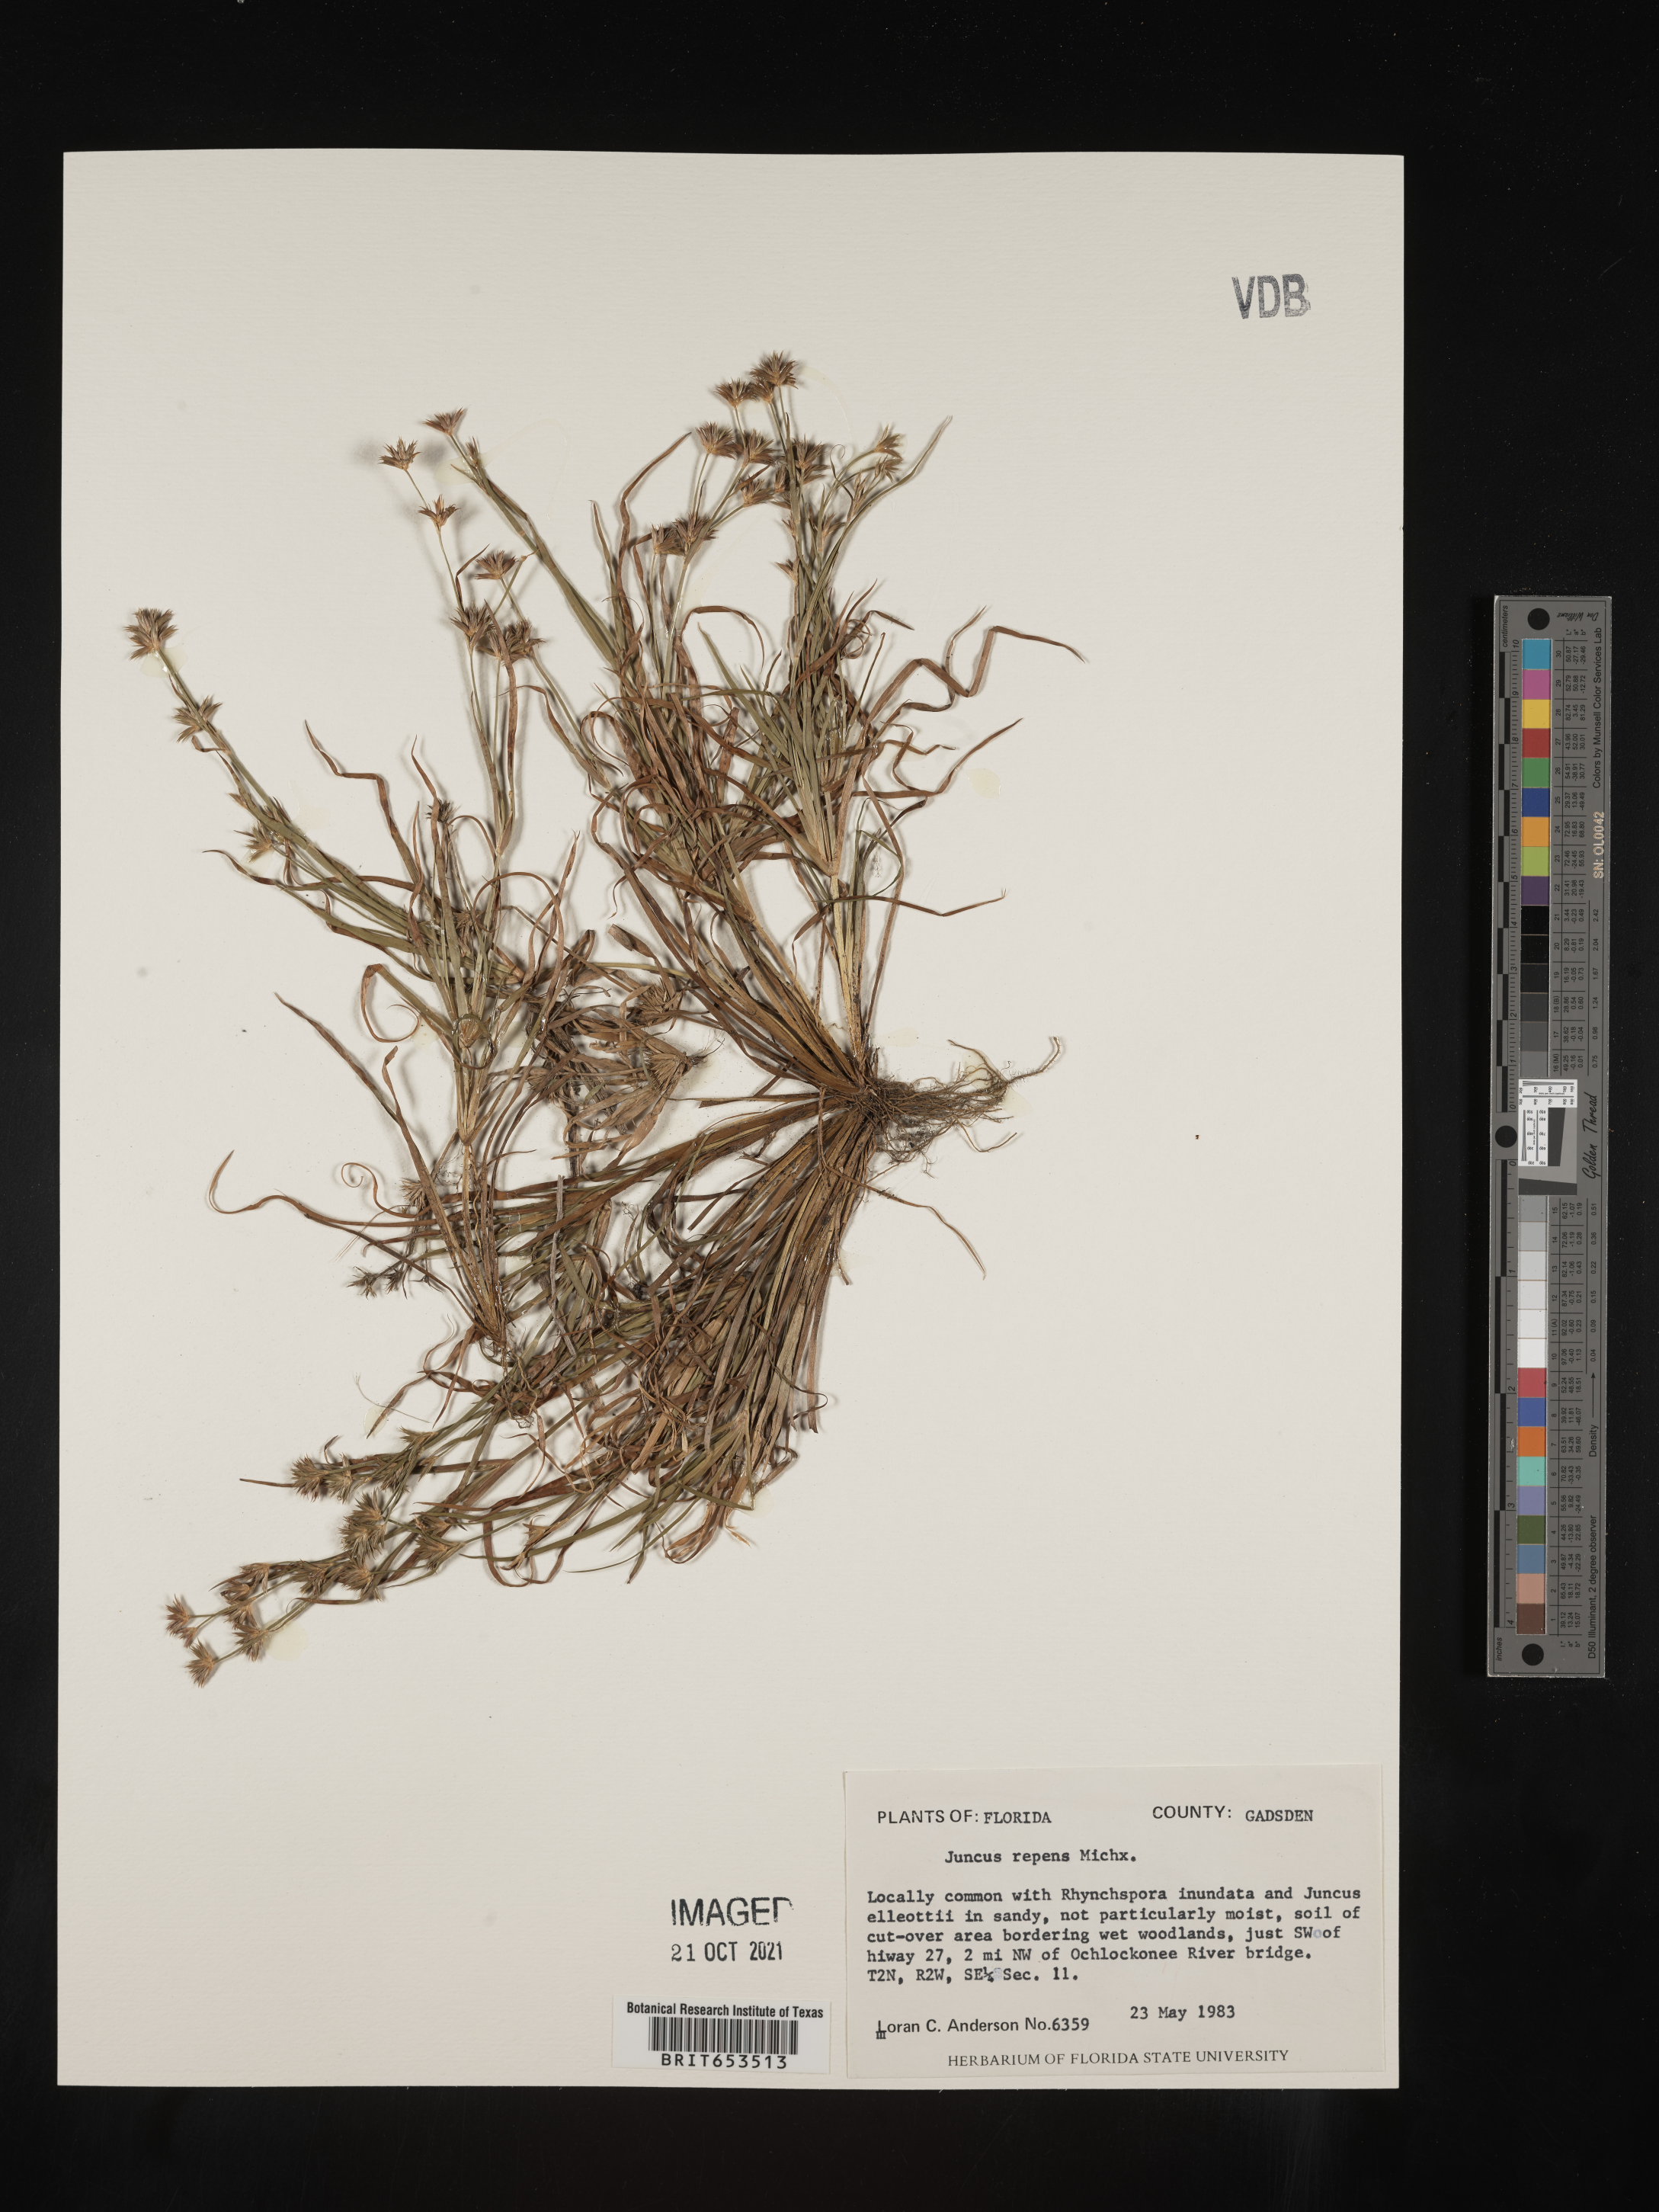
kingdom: Plantae
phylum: Tracheophyta
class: Liliopsida
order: Poales
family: Juncaceae
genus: Juncus
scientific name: Juncus repens
